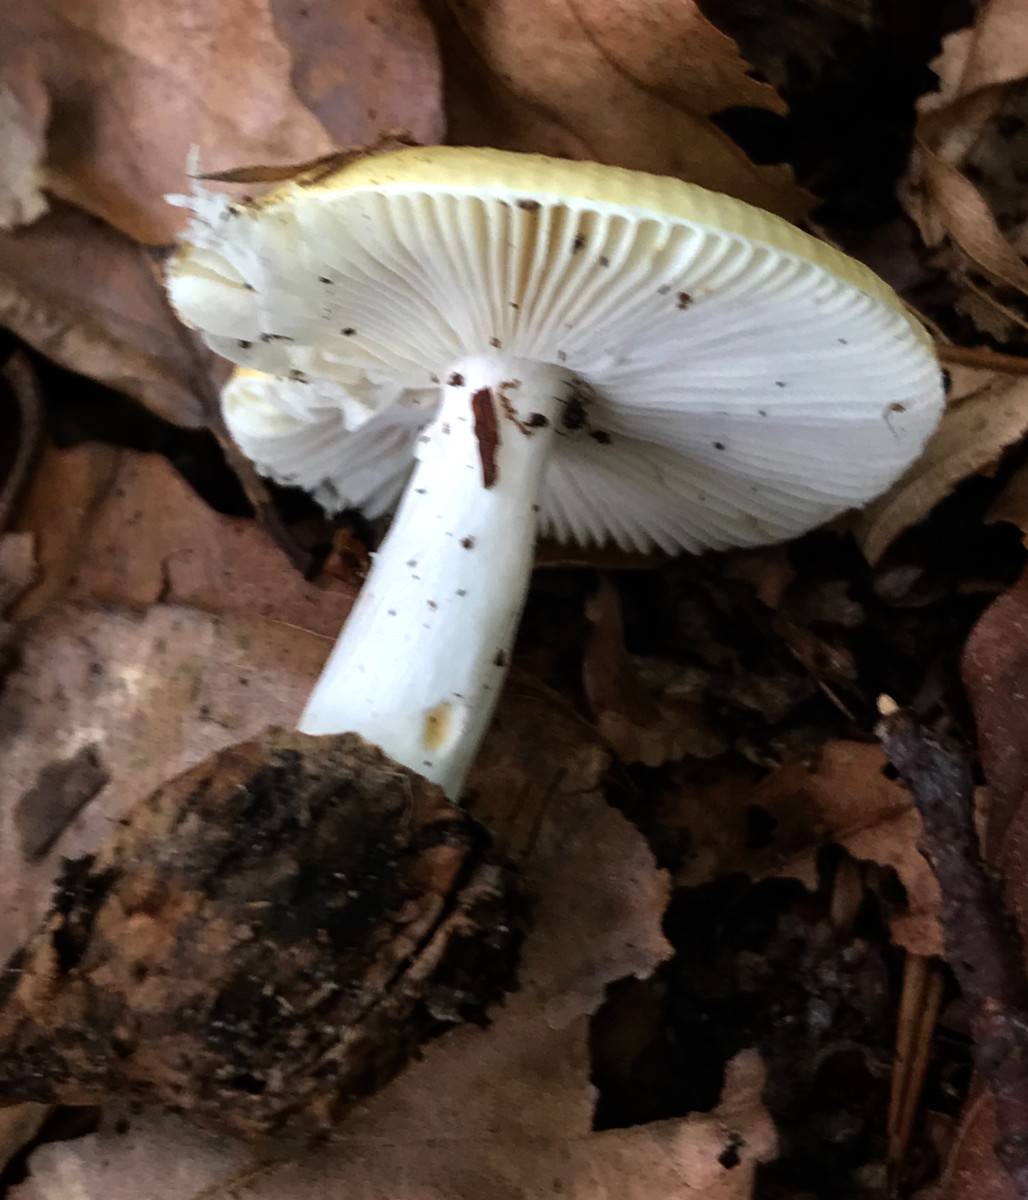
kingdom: Fungi
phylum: Basidiomycota
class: Agaricomycetes
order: Russulales
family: Russulaceae
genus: Russula
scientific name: Russula solaris
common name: sol-skørhat
